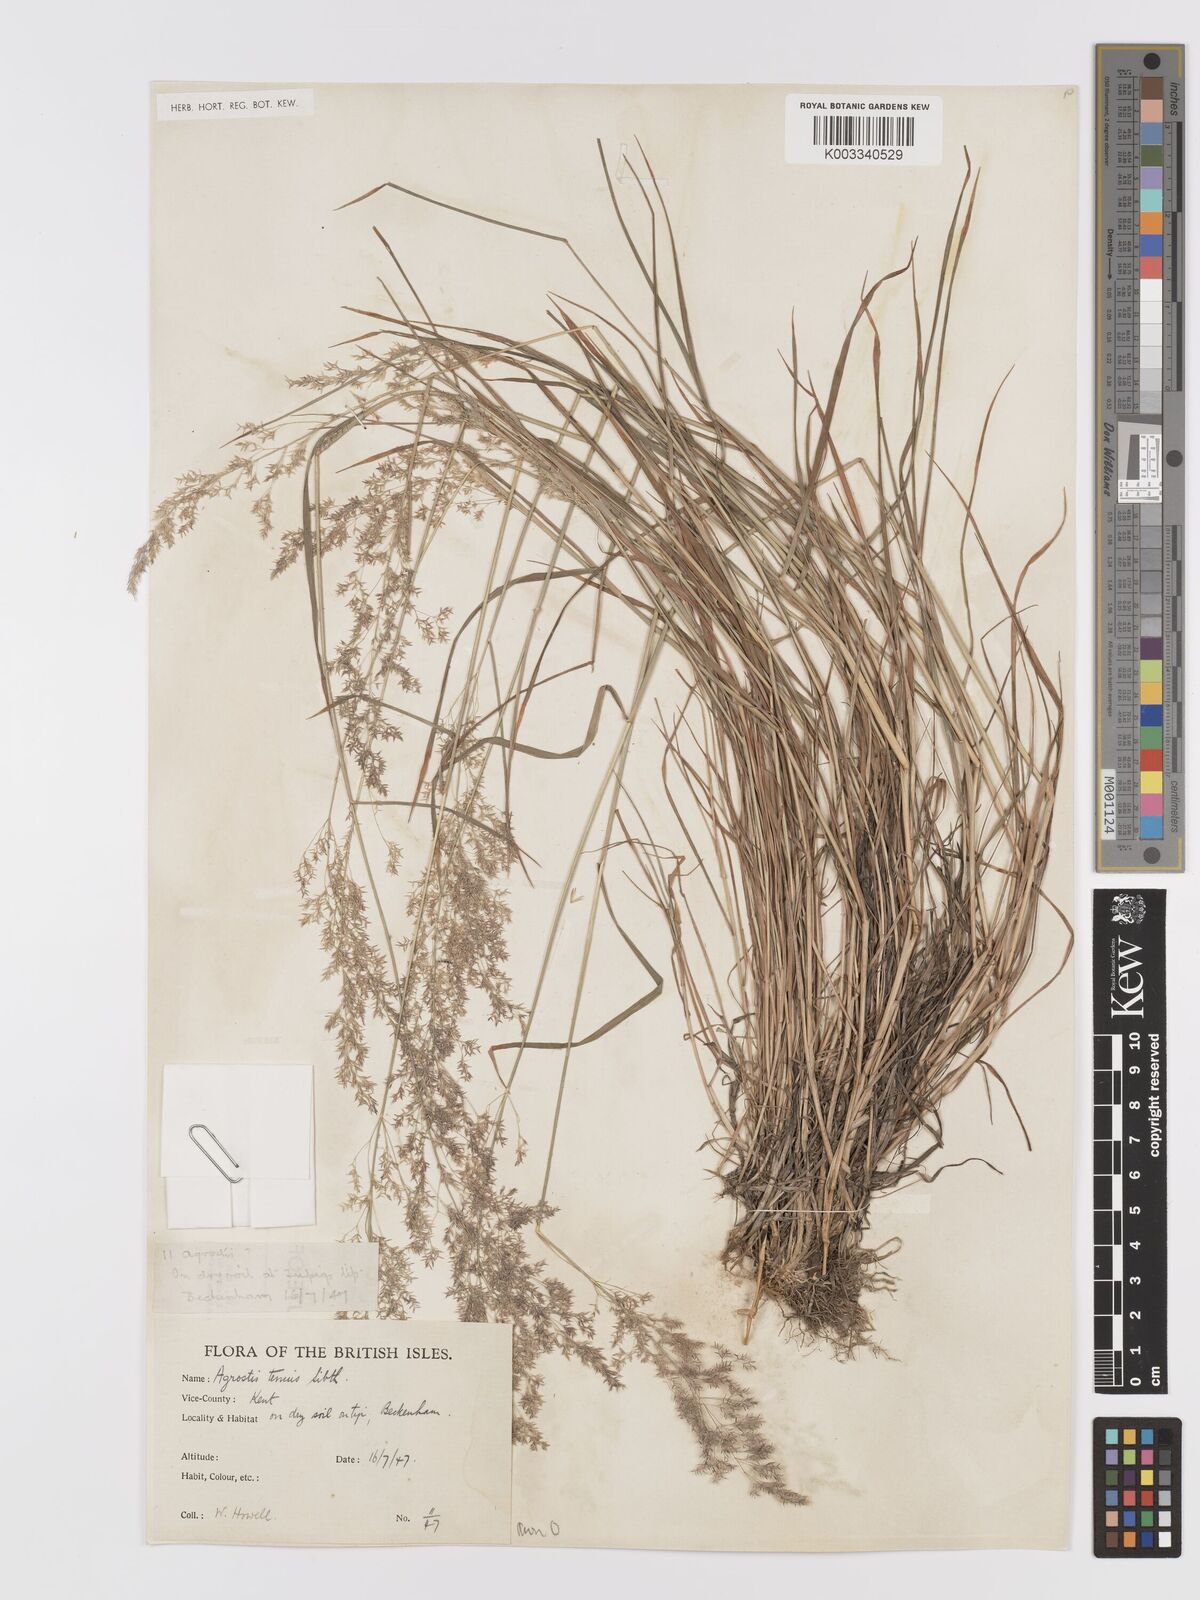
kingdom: Plantae
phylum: Tracheophyta
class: Liliopsida
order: Poales
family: Poaceae
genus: Agrostis
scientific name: Agrostis capillaris
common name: Colonial bentgrass
